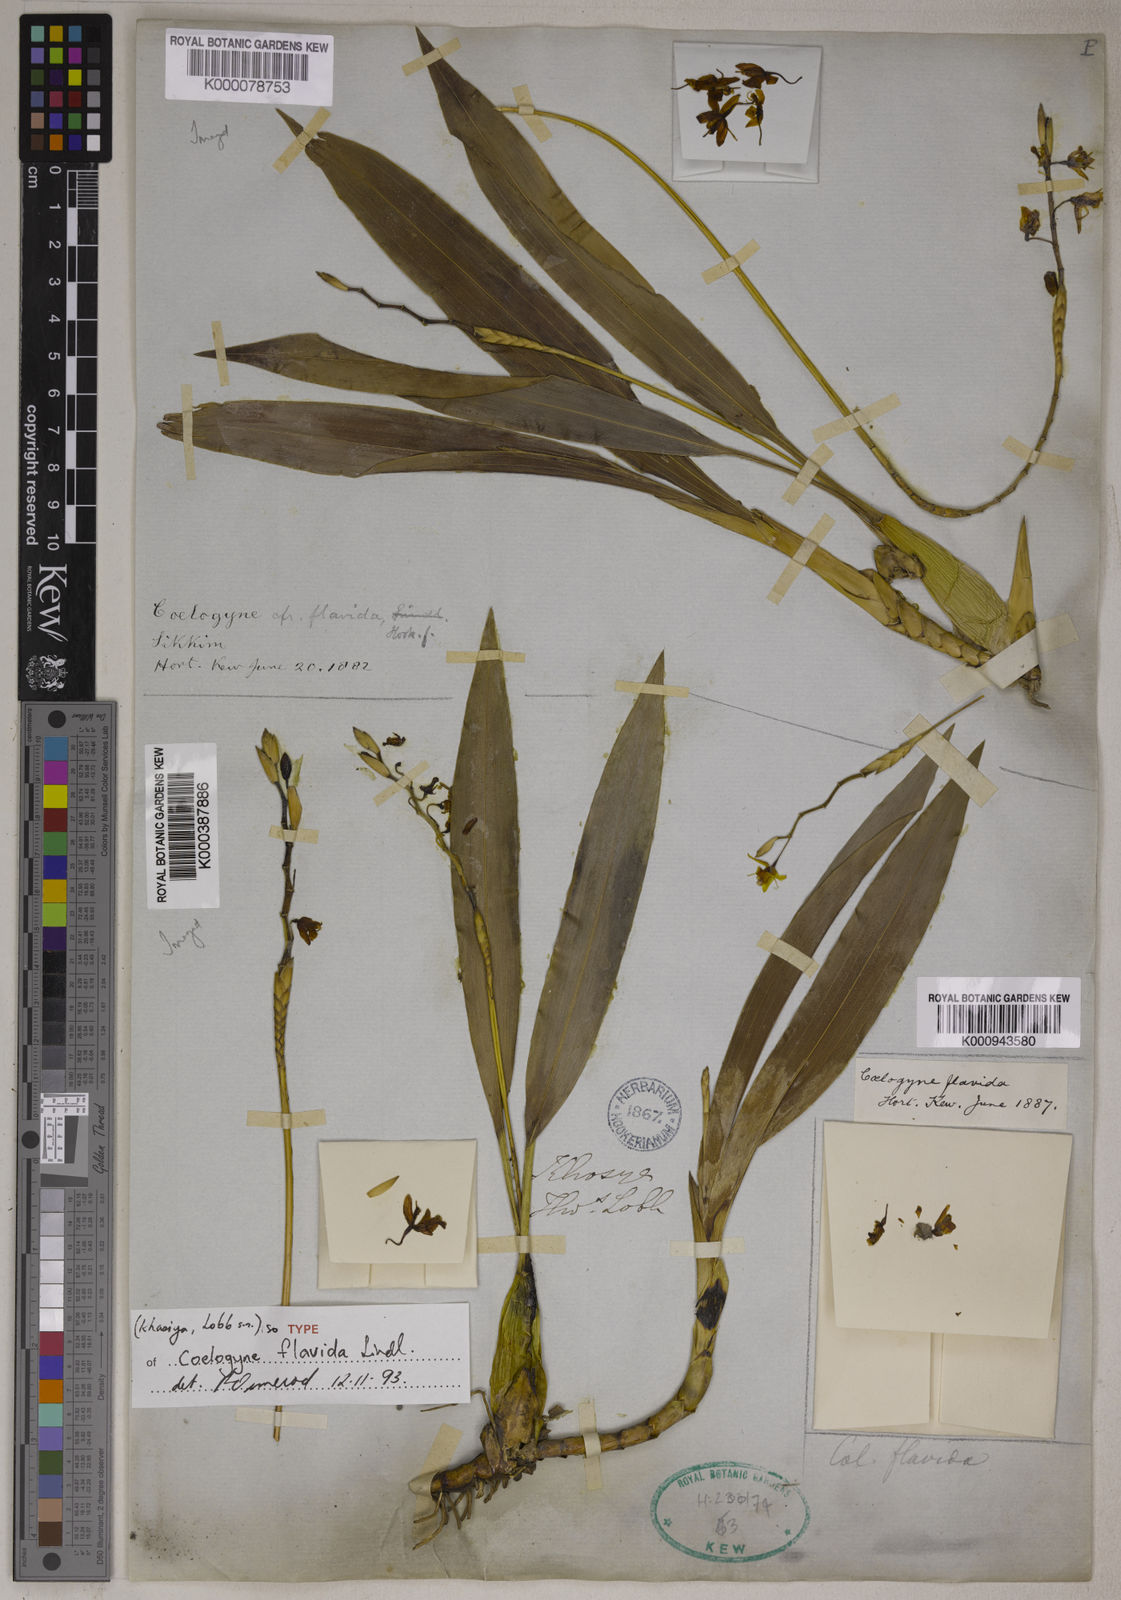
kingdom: Plantae
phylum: Tracheophyta
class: Liliopsida
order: Asparagales
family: Orchidaceae
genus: Coelogyne
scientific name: Coelogyne prolifera
